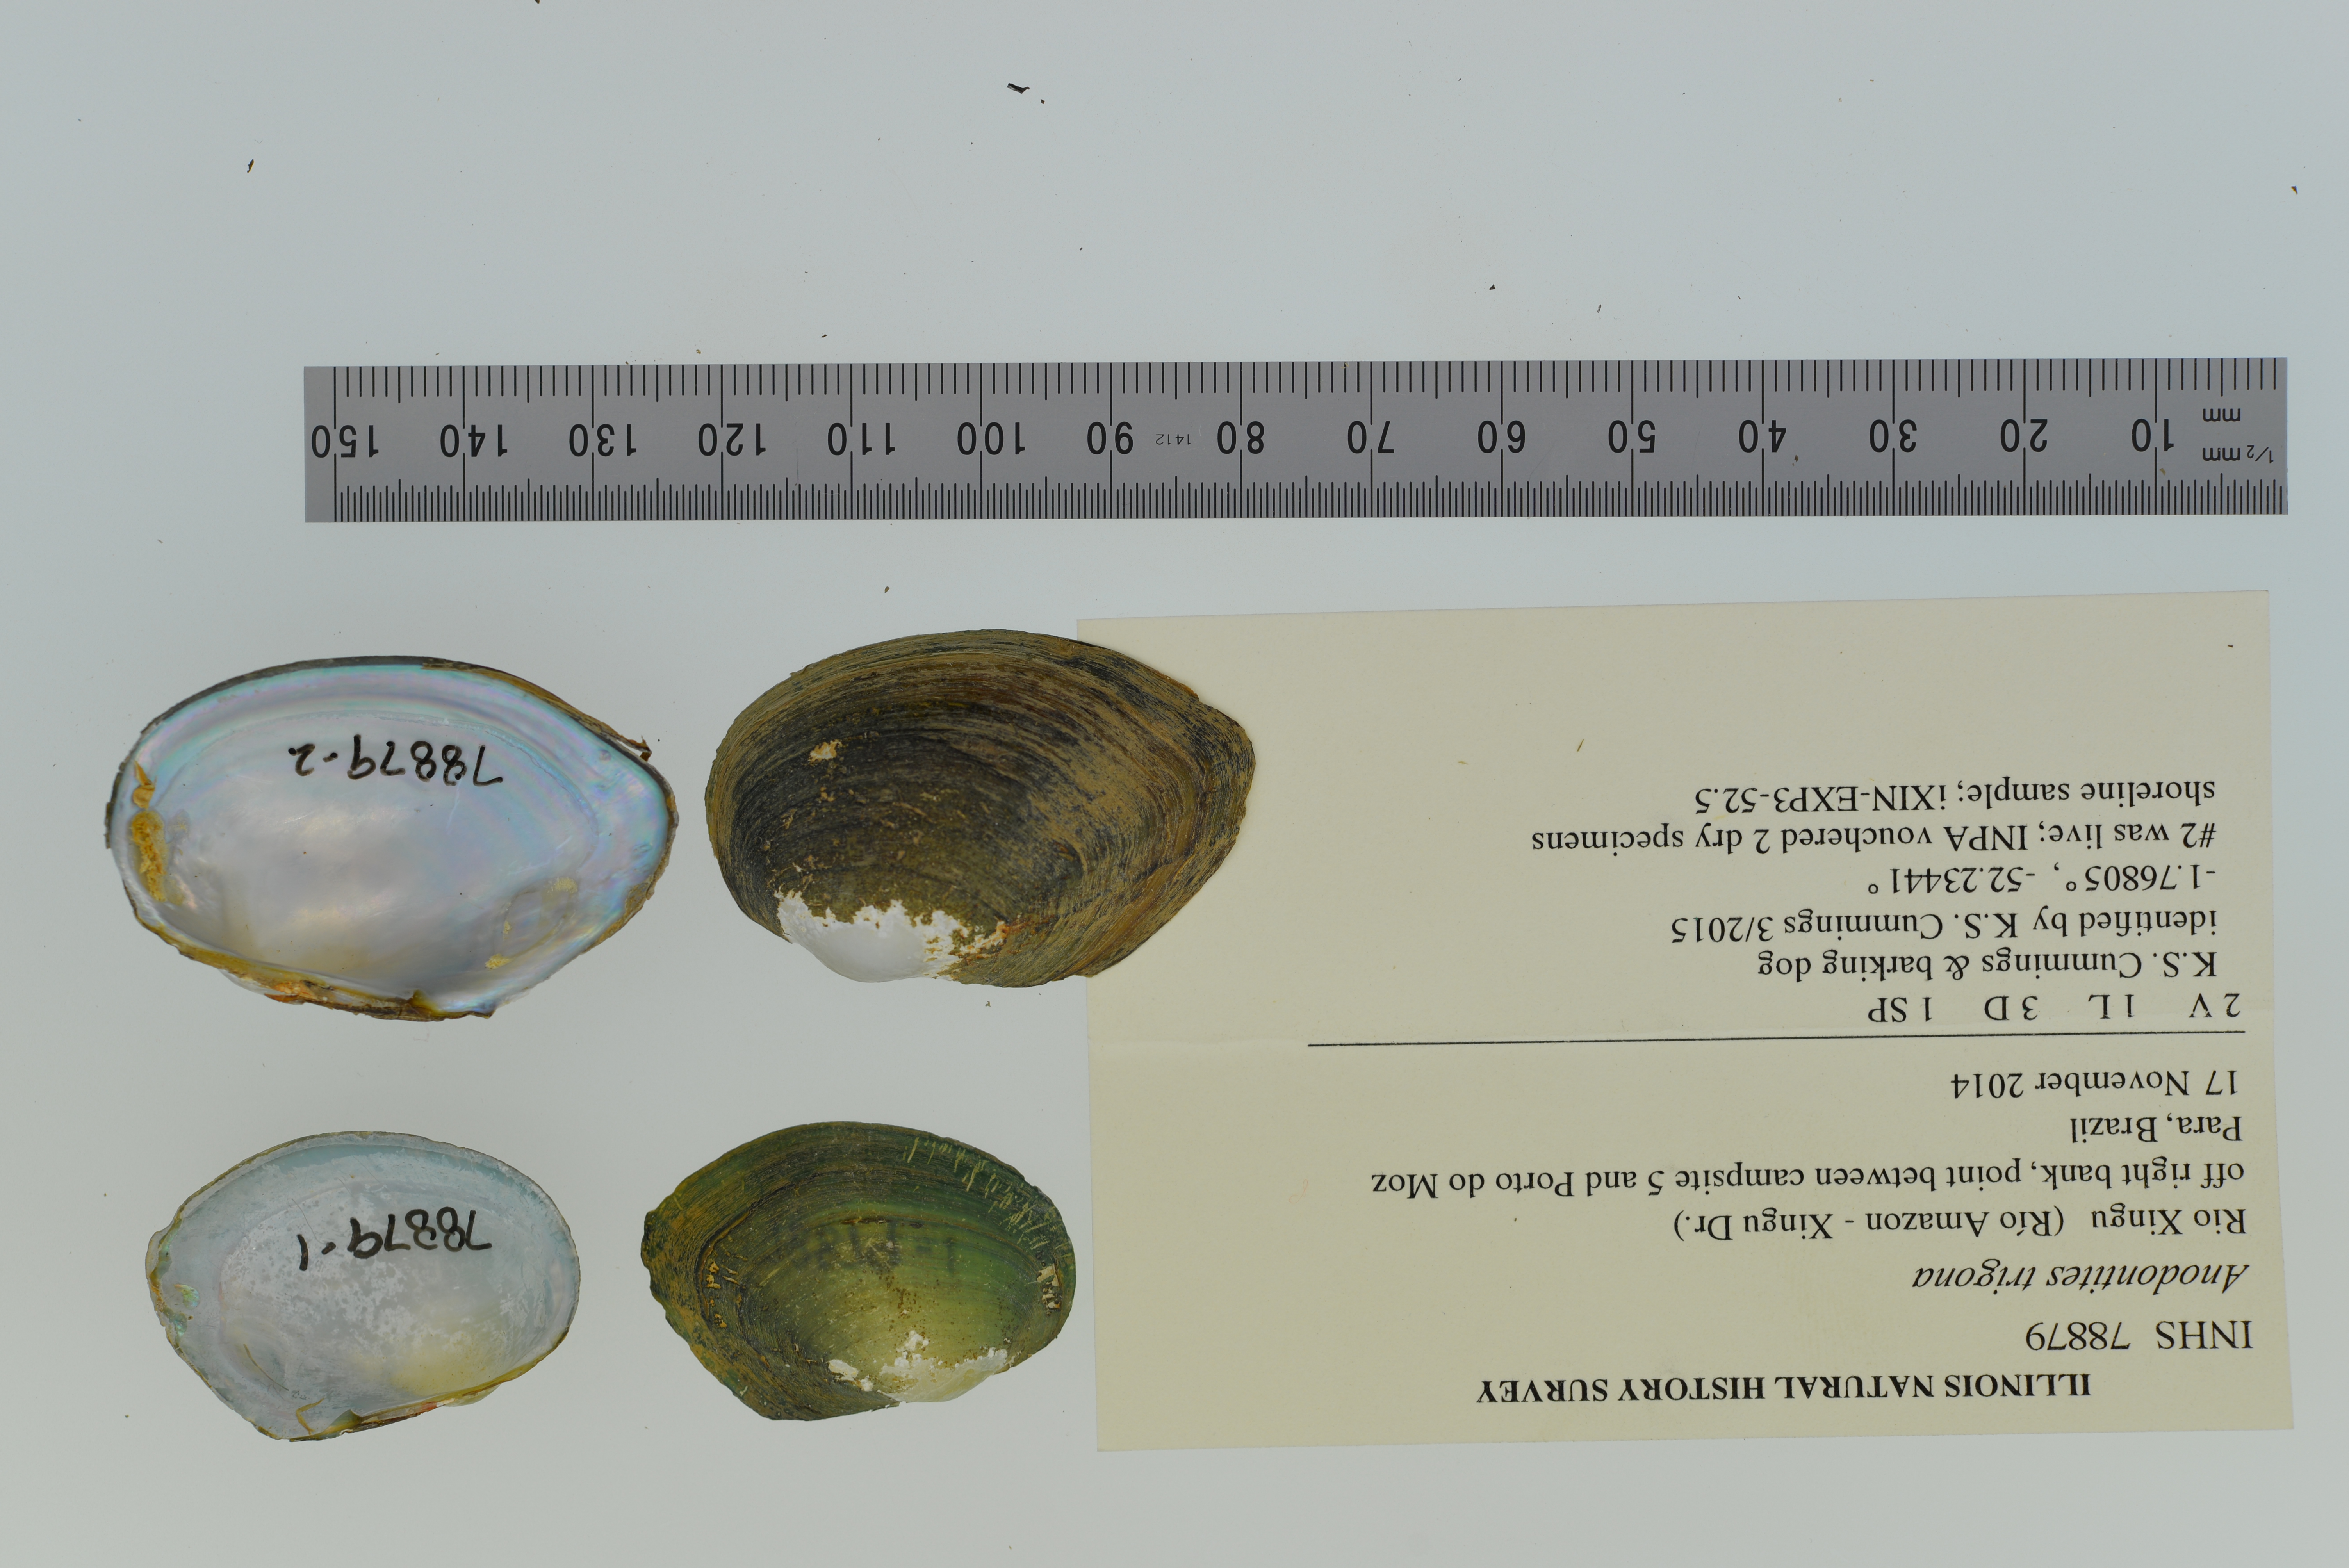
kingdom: Animalia
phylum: Mollusca
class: Bivalvia
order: Unionida
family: Mycetopodidae
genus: Anodontites
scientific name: Anodontites trigona
